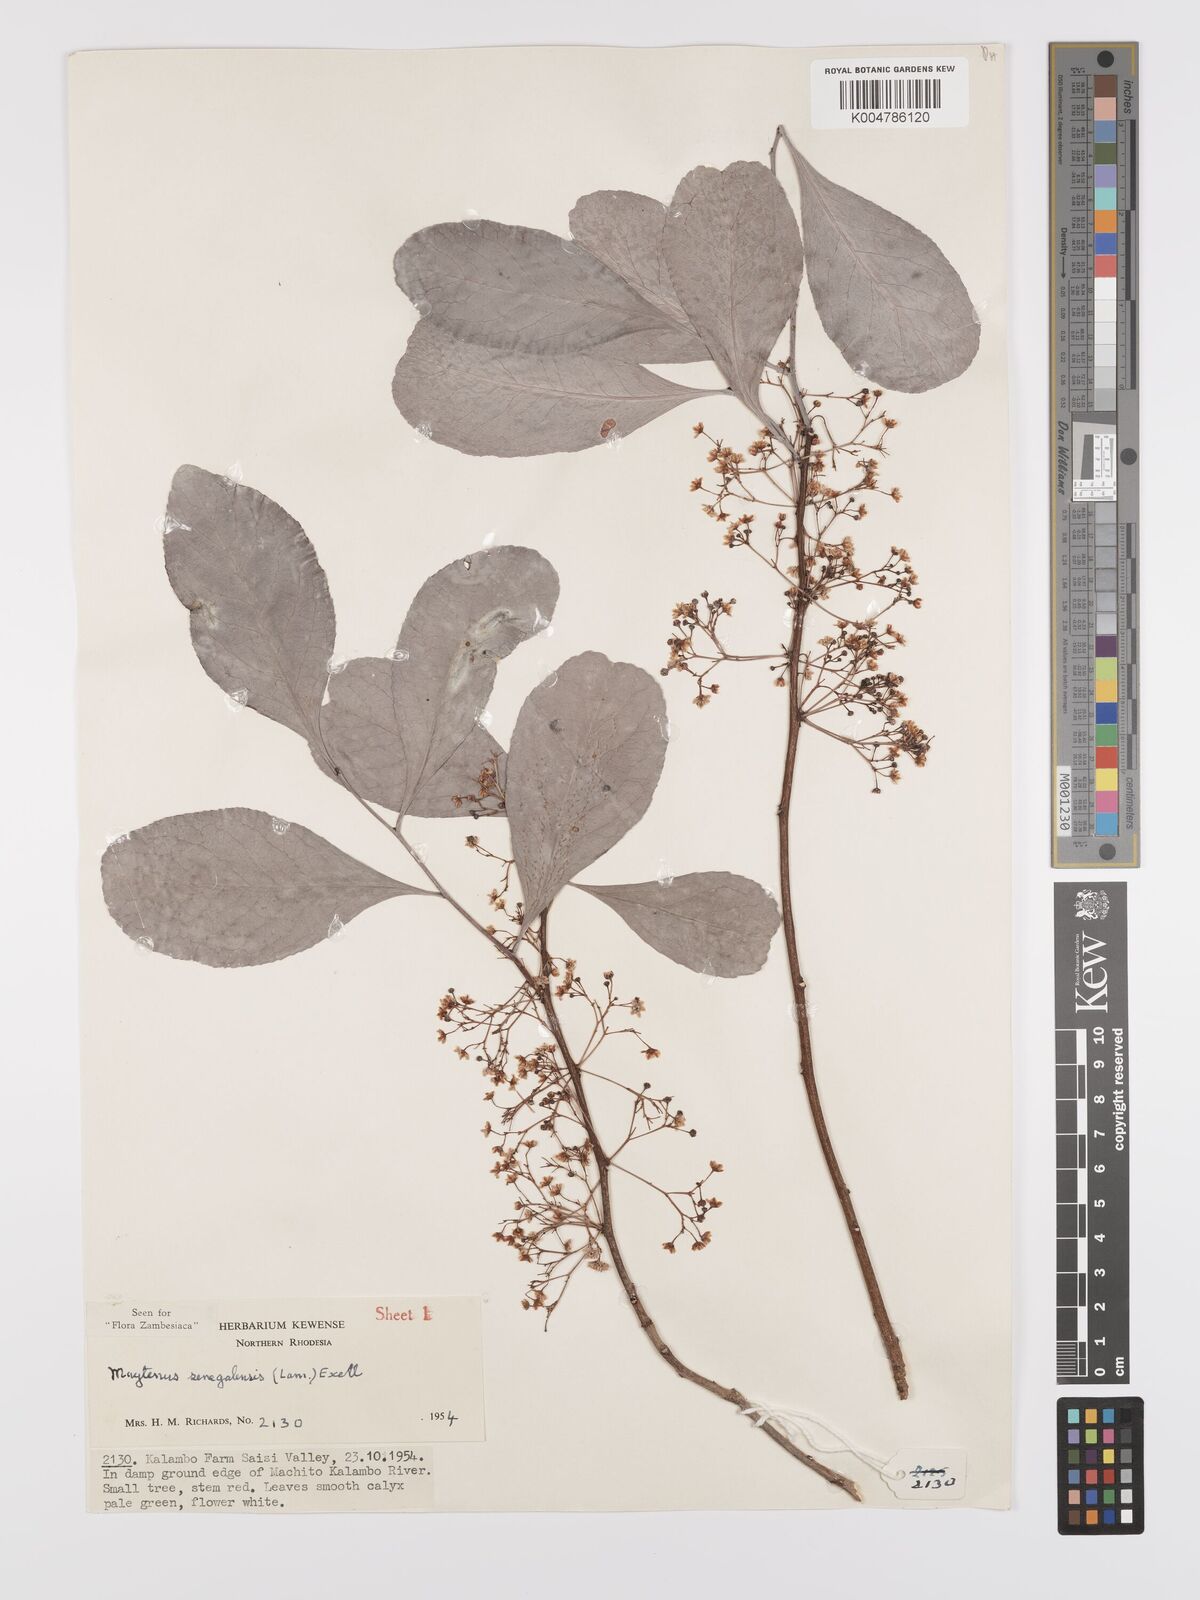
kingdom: Plantae
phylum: Tracheophyta
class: Magnoliopsida
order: Celastrales
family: Celastraceae
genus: Gymnosporia
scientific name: Gymnosporia senegalensis
